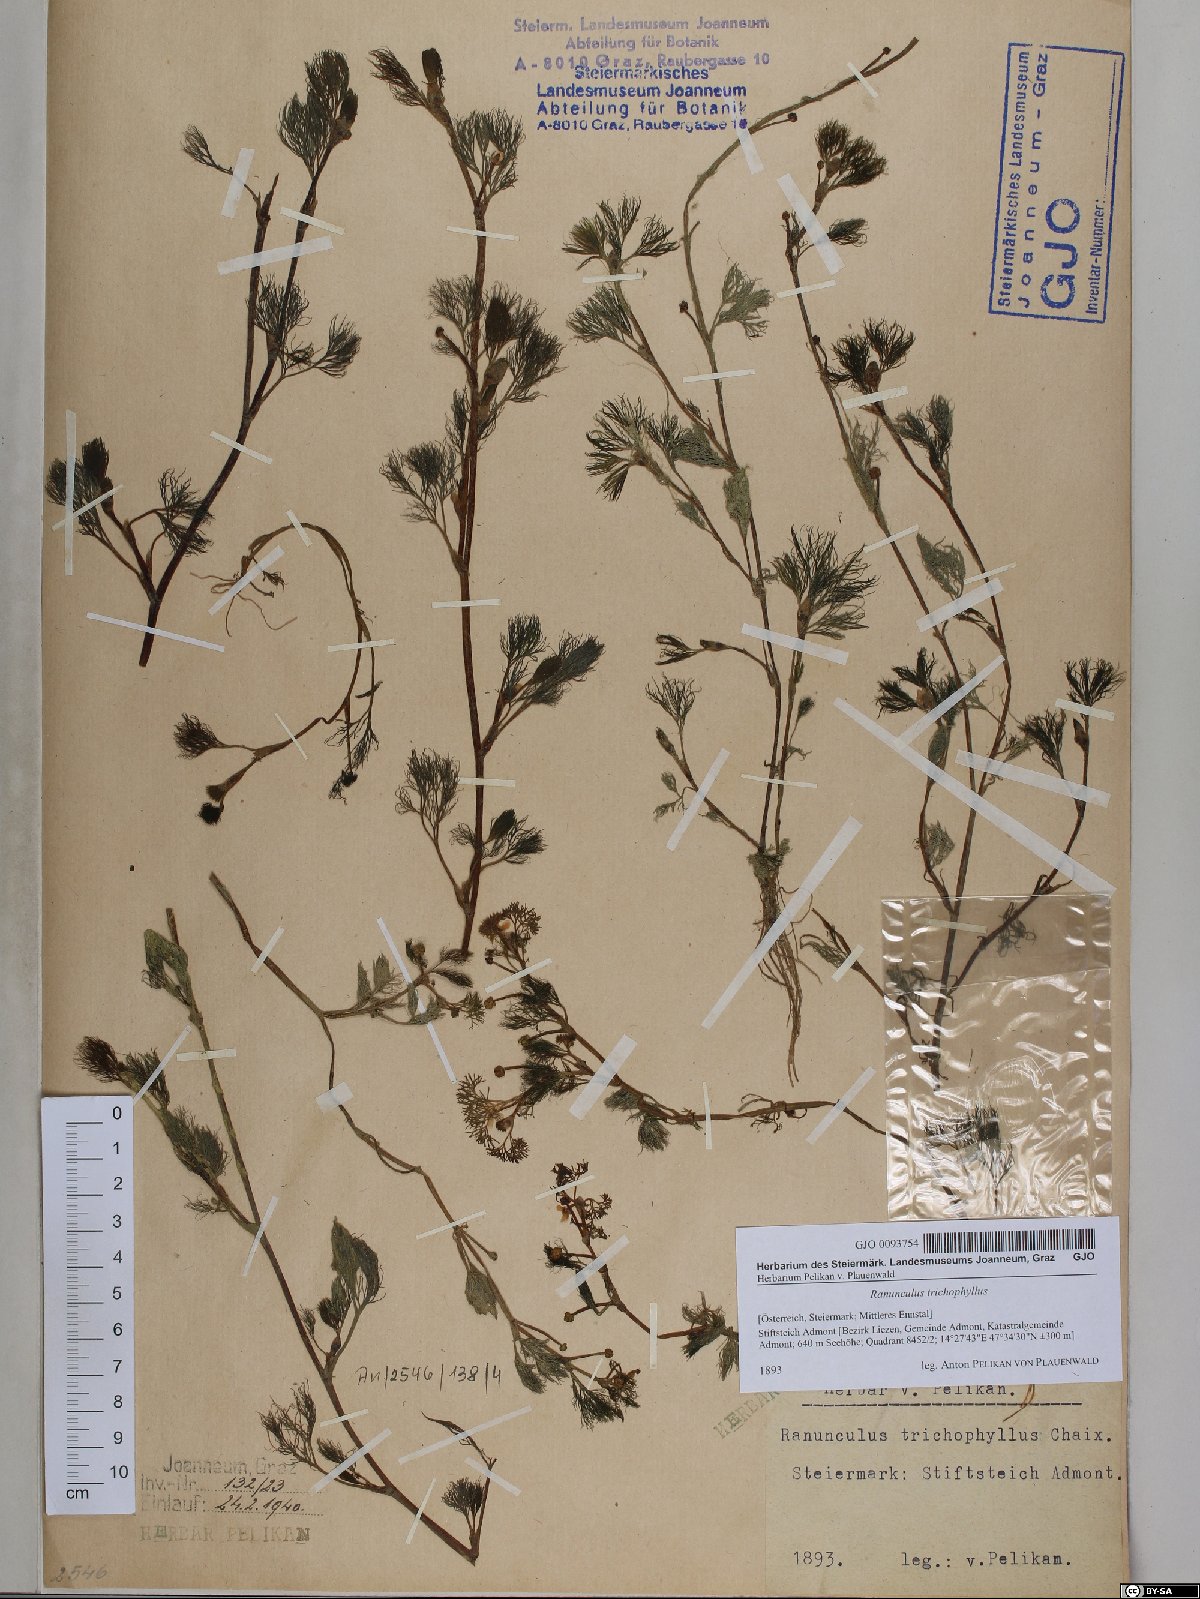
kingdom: Plantae
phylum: Tracheophyta
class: Magnoliopsida
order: Ranunculales
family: Ranunculaceae
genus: Ranunculus
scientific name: Ranunculus trichophyllus
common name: Thread-leaved water-crowfoot
